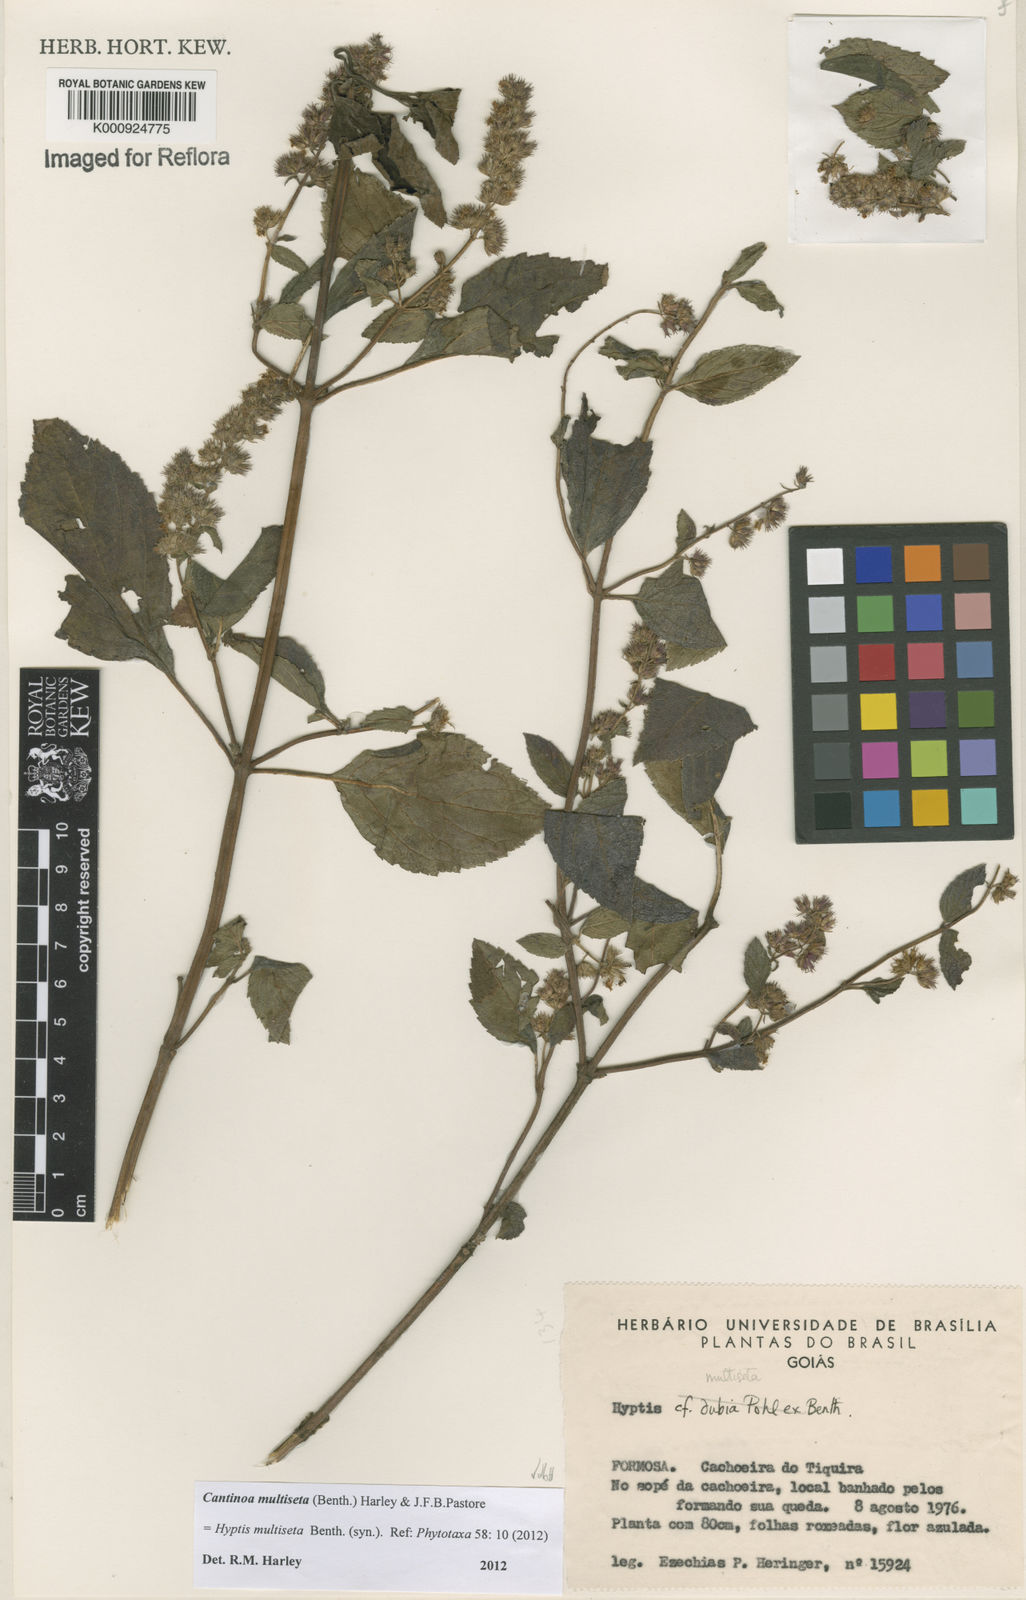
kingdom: Plantae
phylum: Tracheophyta
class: Magnoliopsida
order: Lamiales
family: Lamiaceae
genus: Cantinoa
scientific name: Cantinoa multiseta
